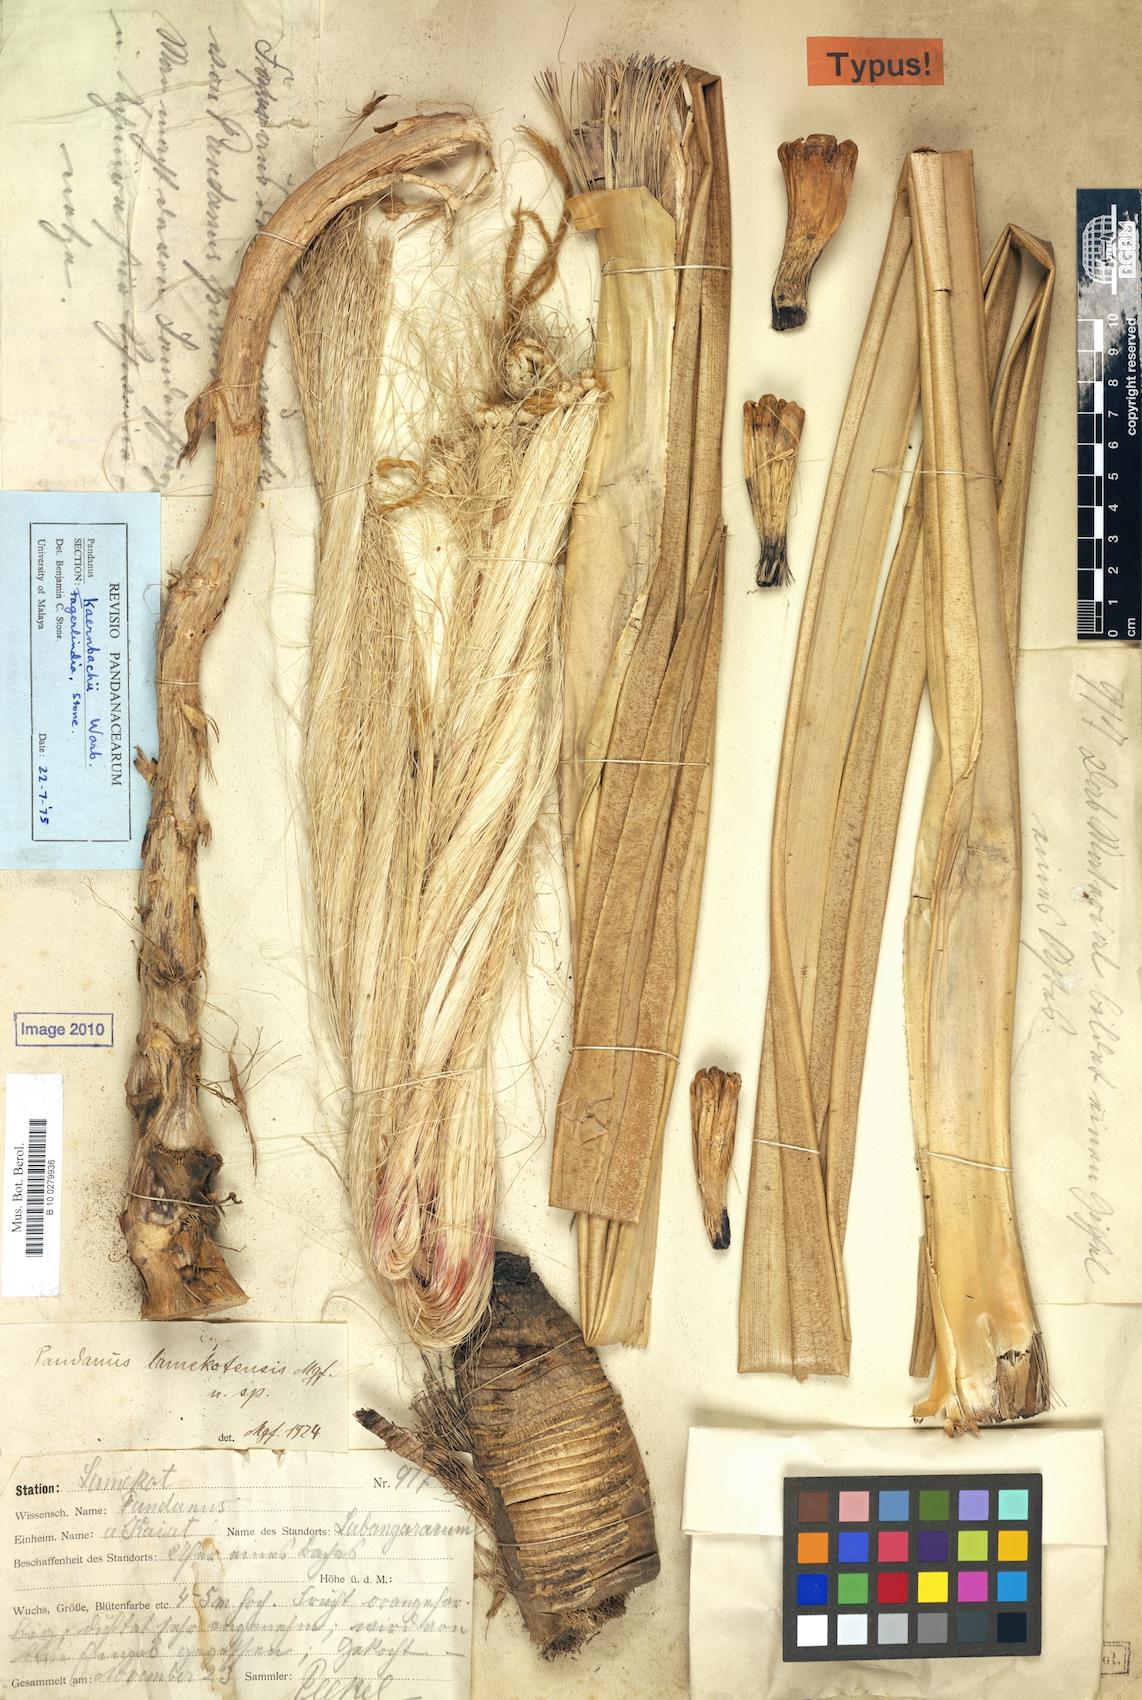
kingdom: Plantae
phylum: Tracheophyta
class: Liliopsida
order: Pandanales
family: Pandanaceae
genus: Pandanus
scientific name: Pandanus kaernbachii
